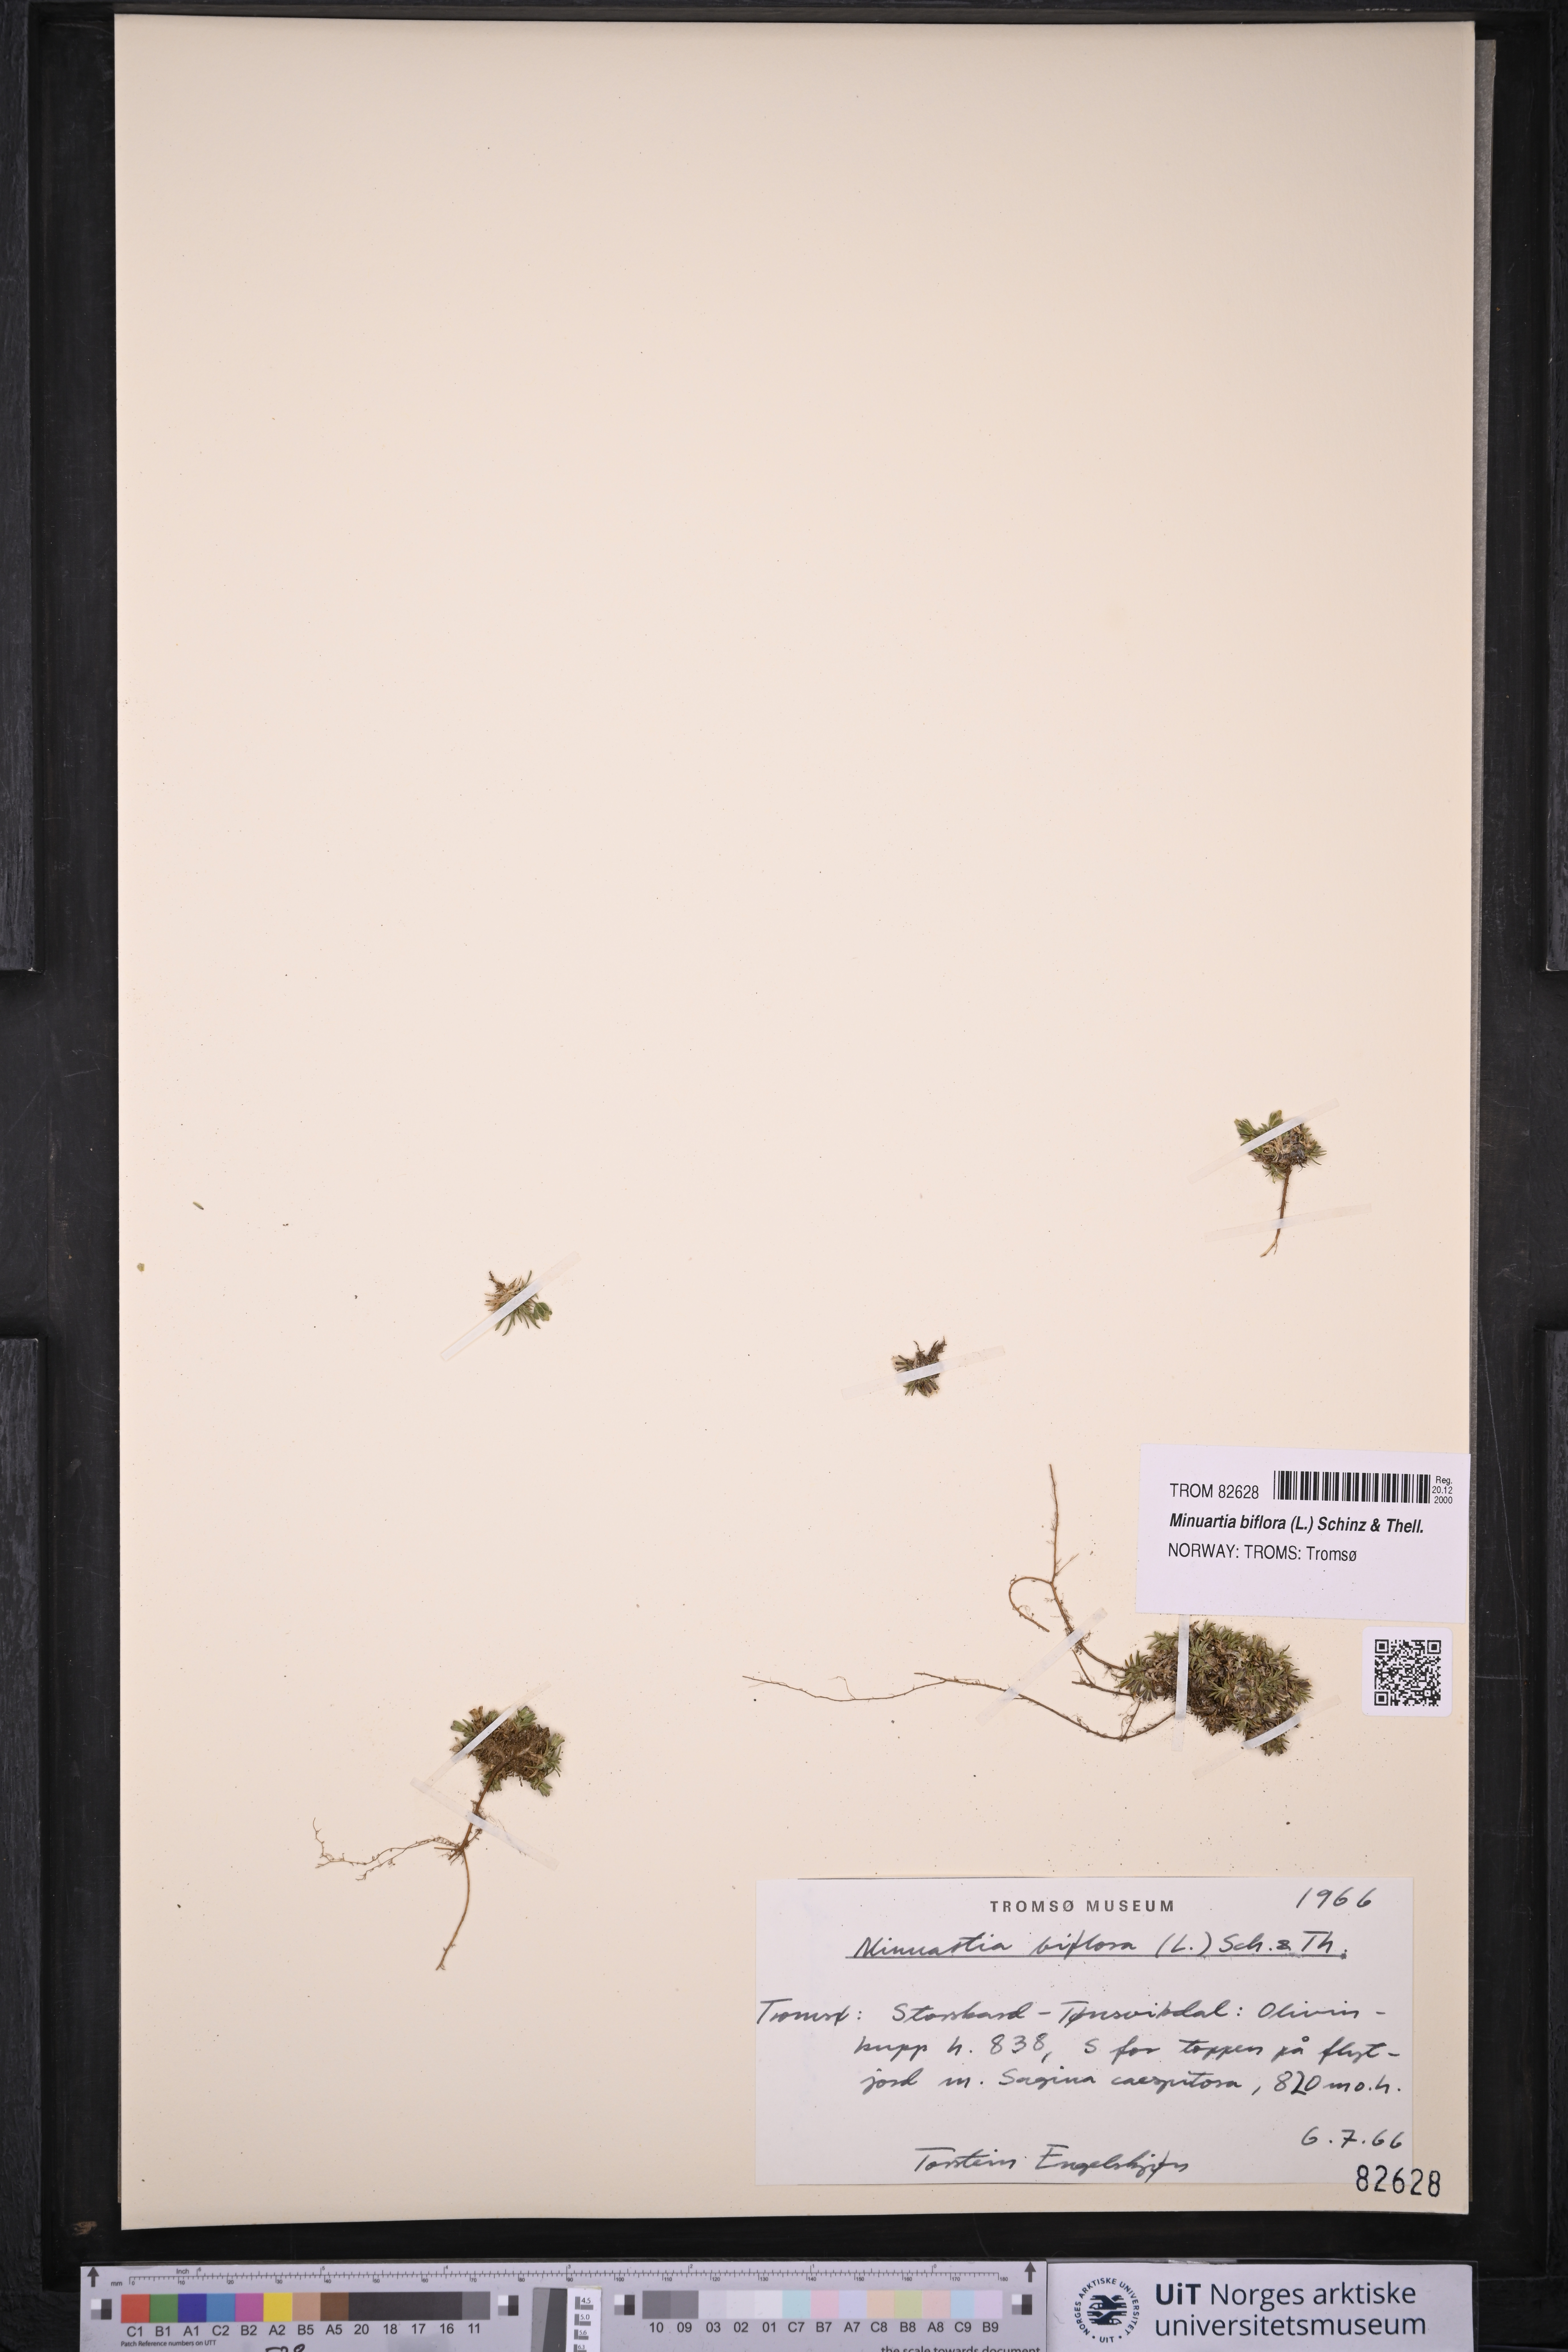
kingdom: Plantae
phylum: Tracheophyta
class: Magnoliopsida
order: Caryophyllales
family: Caryophyllaceae
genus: Cherleria
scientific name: Cherleria biflora
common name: Mountain sandwort
